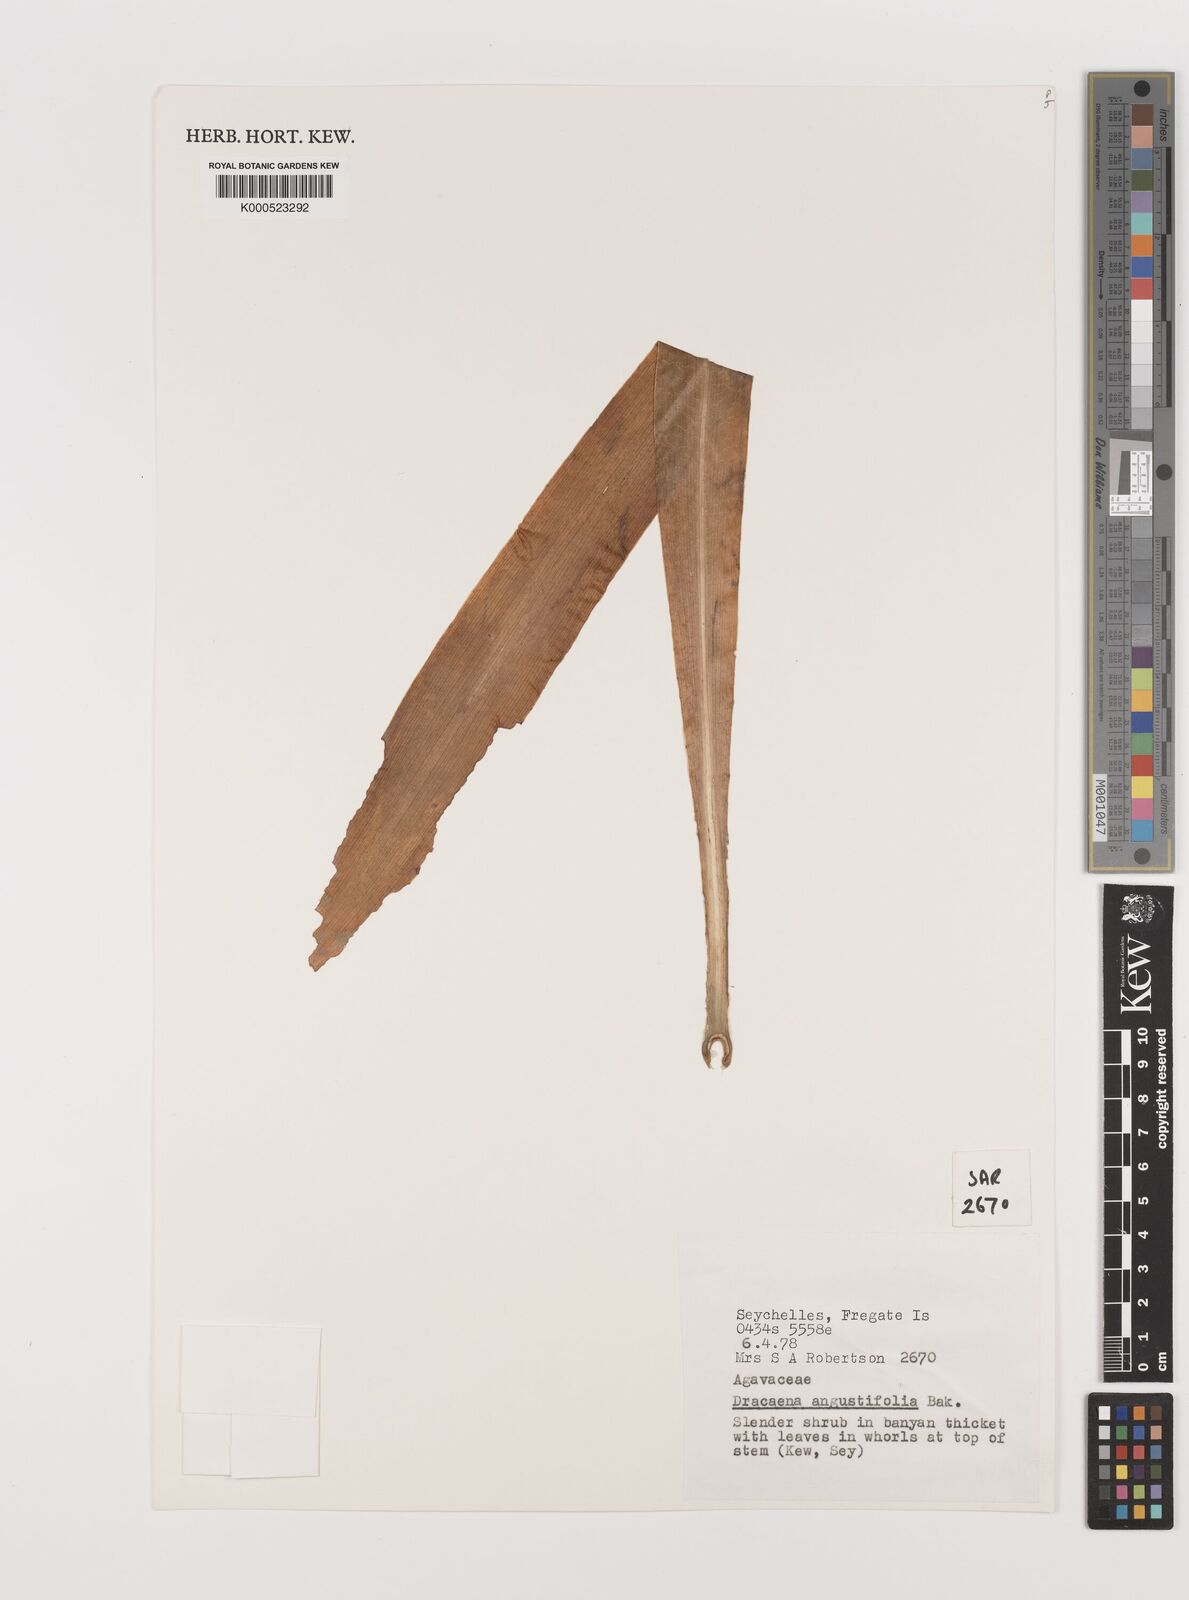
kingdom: Plantae
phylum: Tracheophyta
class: Liliopsida
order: Asparagales
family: Asparagaceae
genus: Dracaena
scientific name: Dracaena angustifolia
